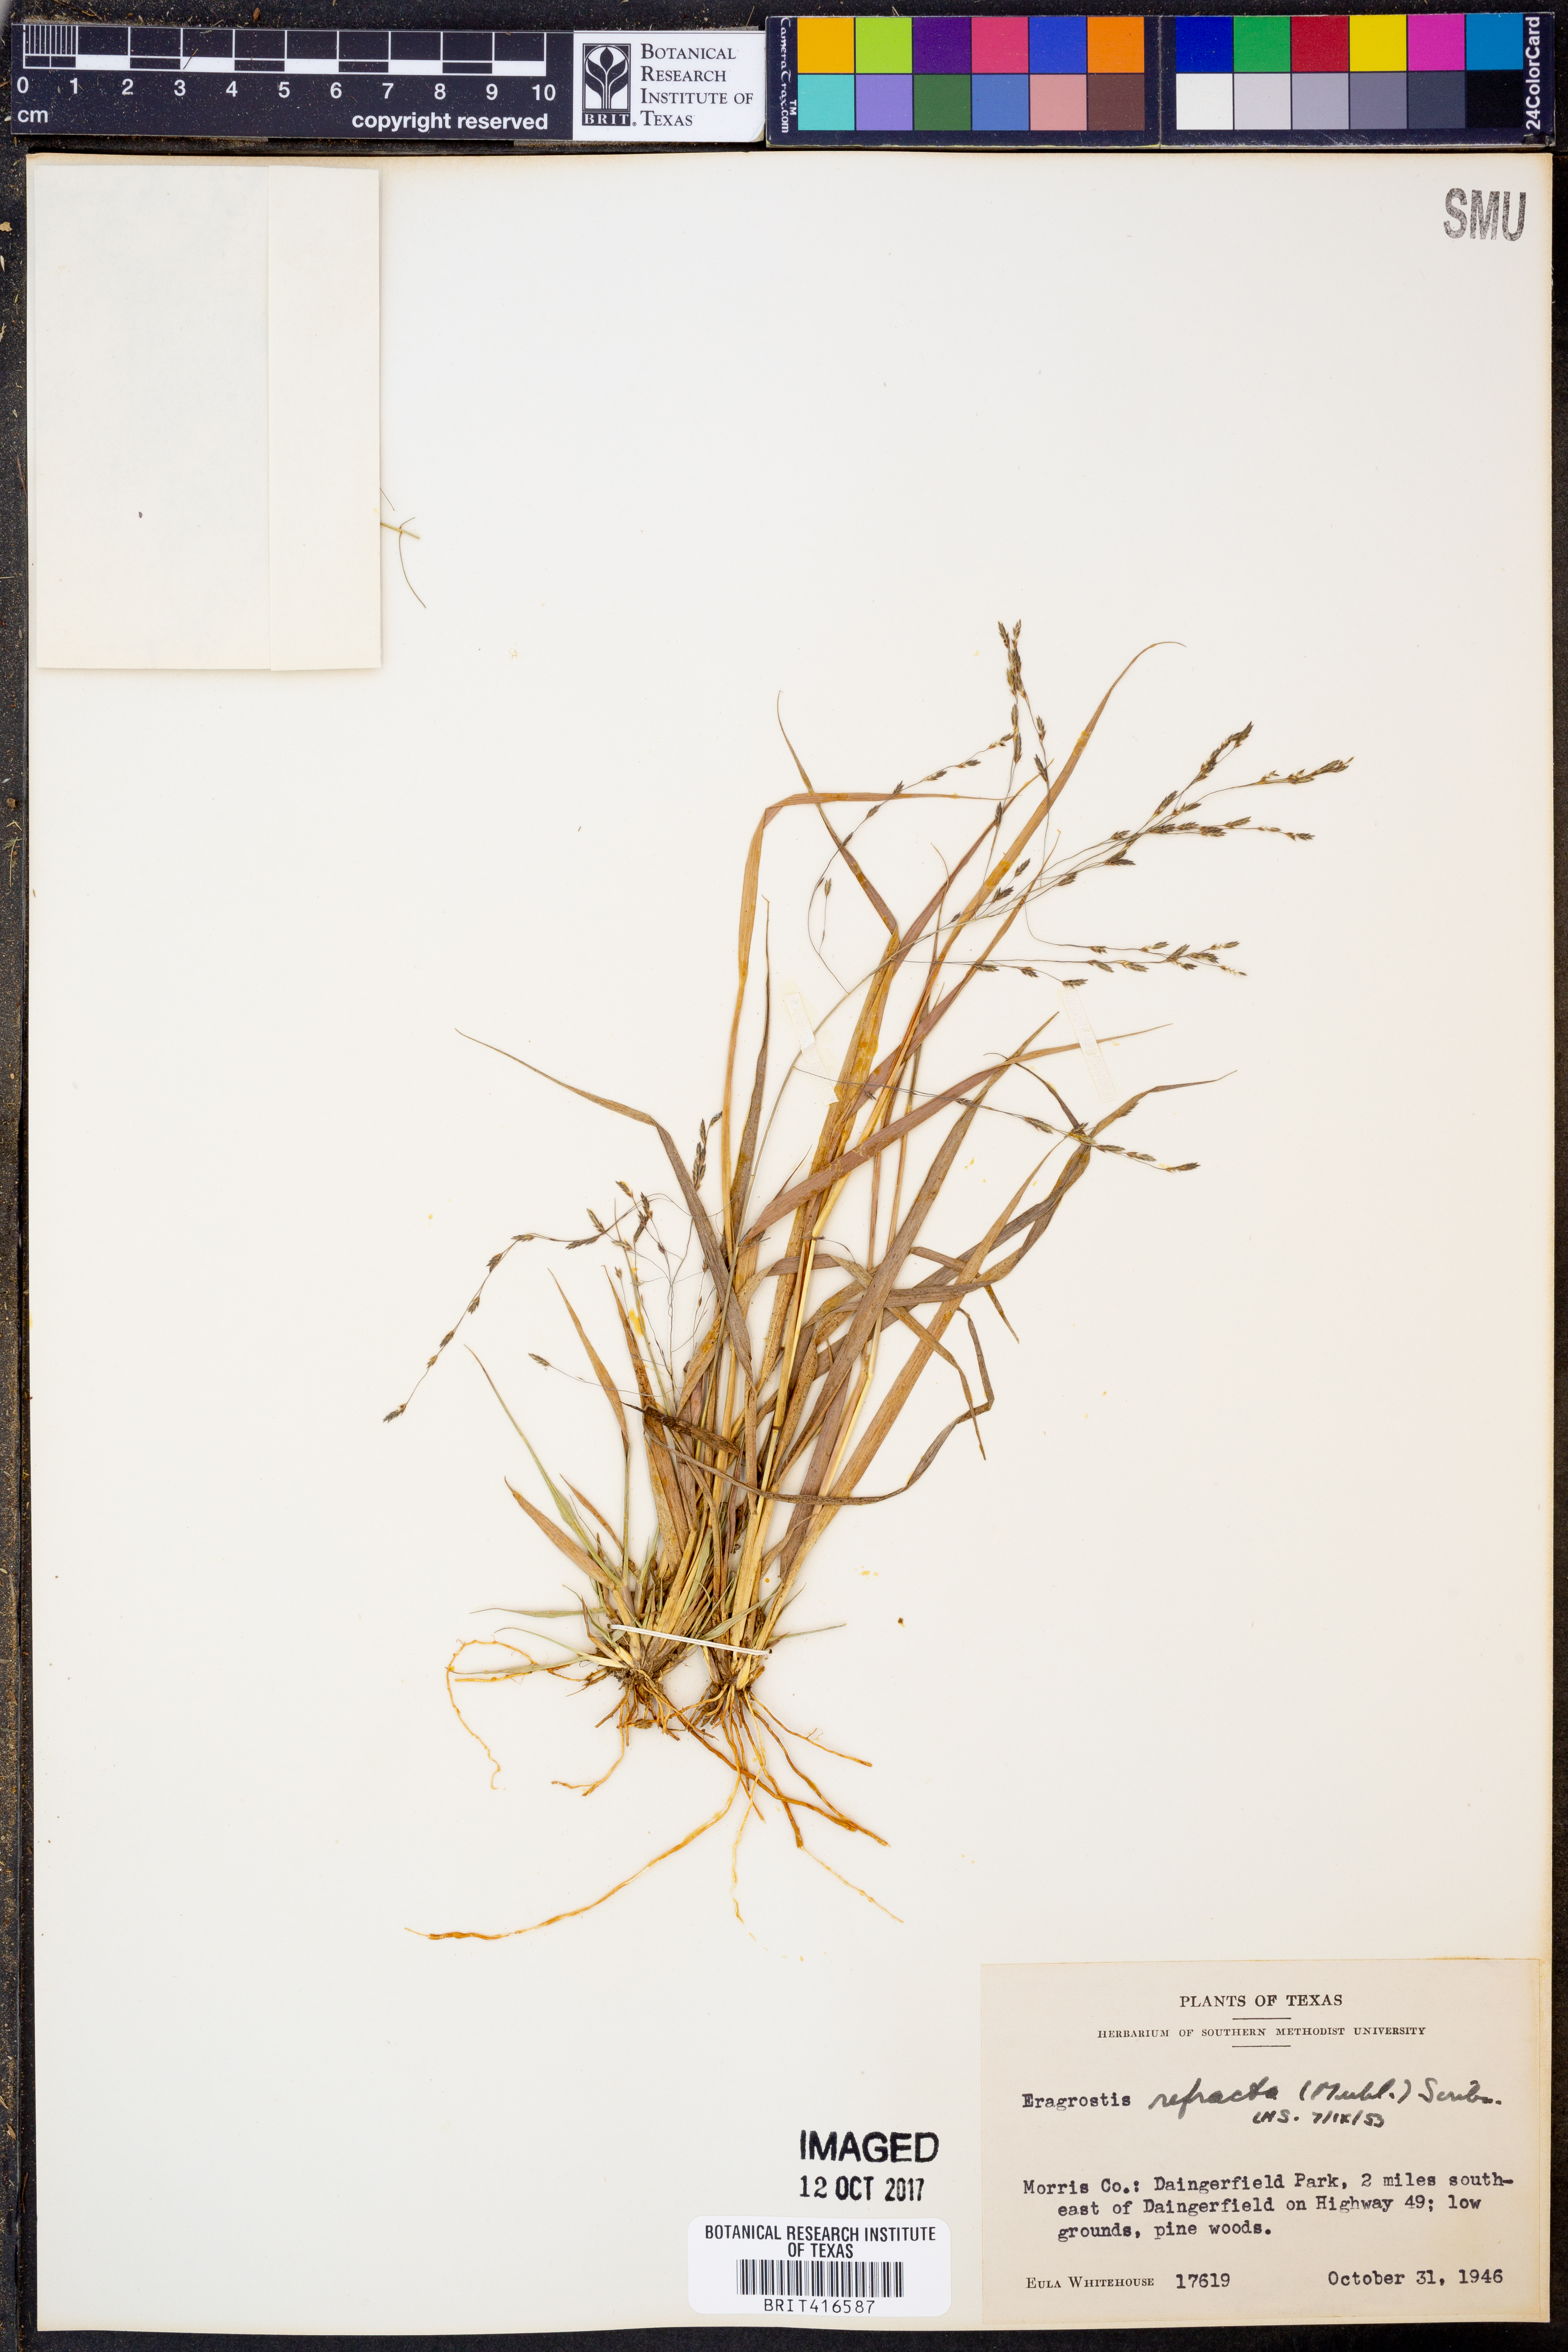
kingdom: Plantae
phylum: Tracheophyta
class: Liliopsida
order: Poales
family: Poaceae
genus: Eragrostis
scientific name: Eragrostis refracta
